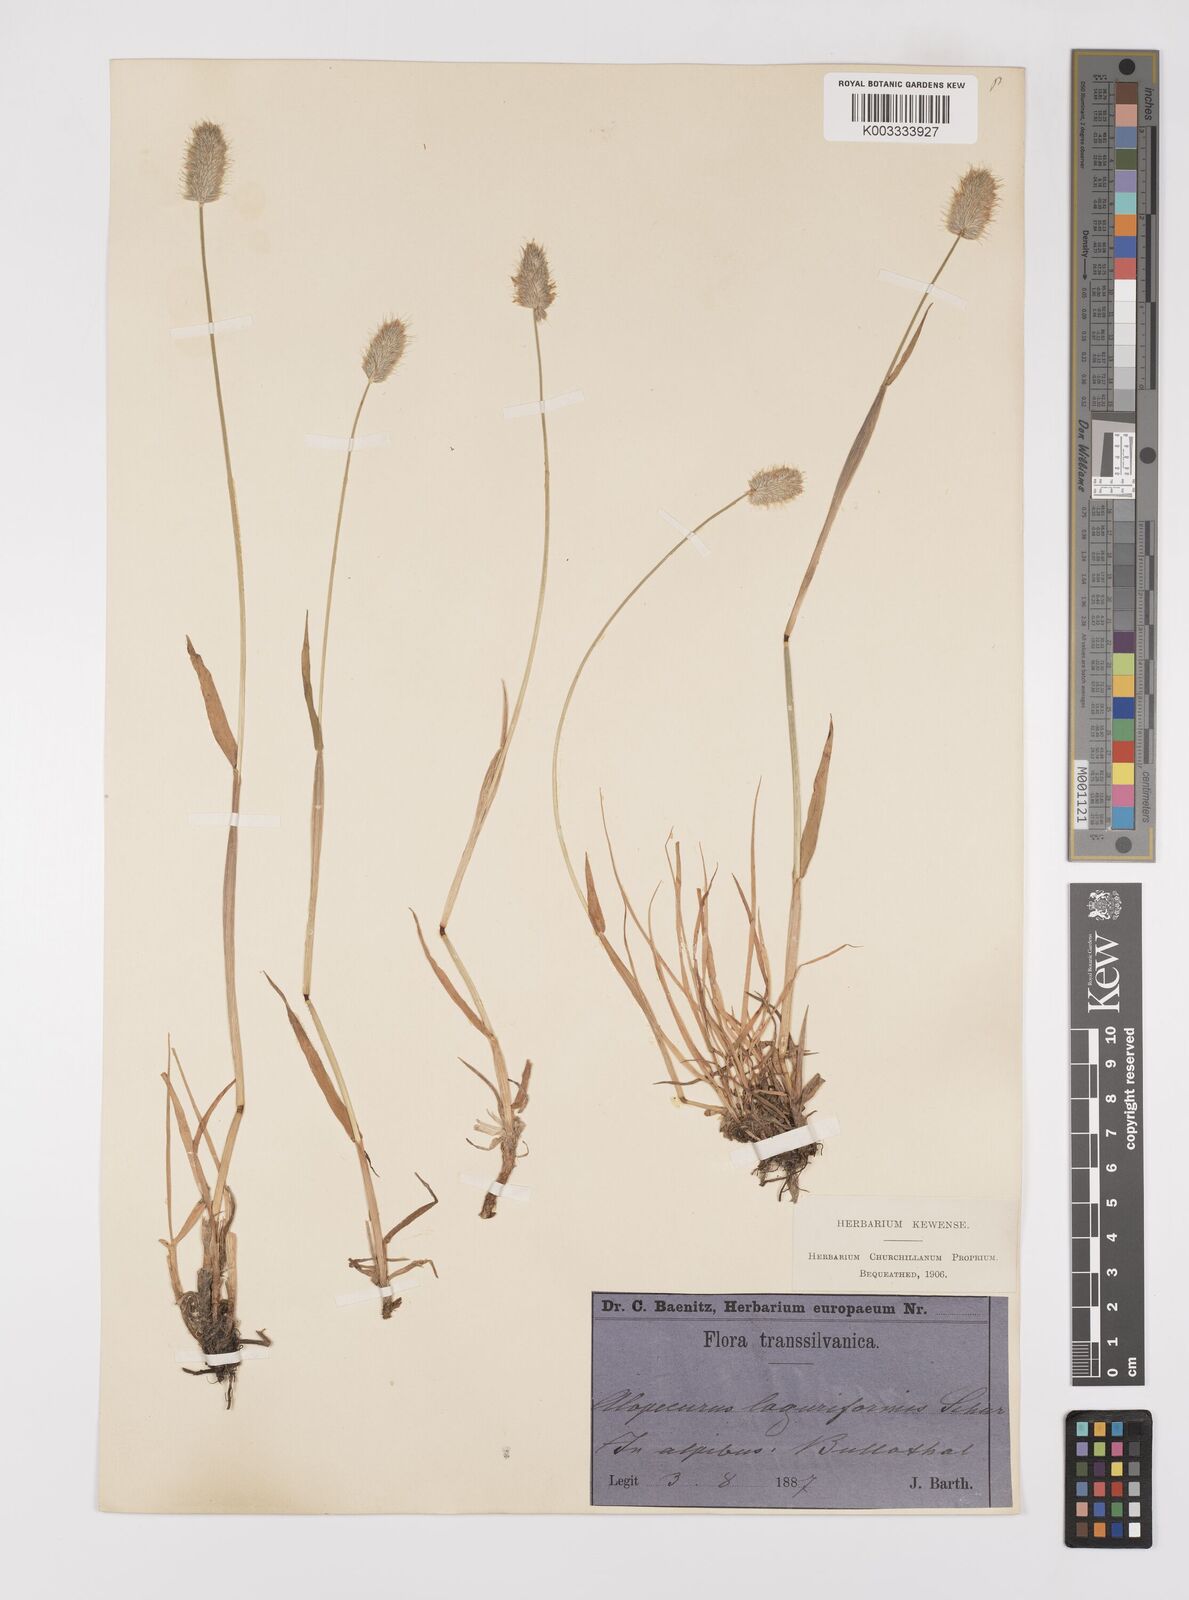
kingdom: Plantae
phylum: Tracheophyta
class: Liliopsida
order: Poales
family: Poaceae
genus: Alopecurus
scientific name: Alopecurus pratensis
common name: Meadow foxtail
